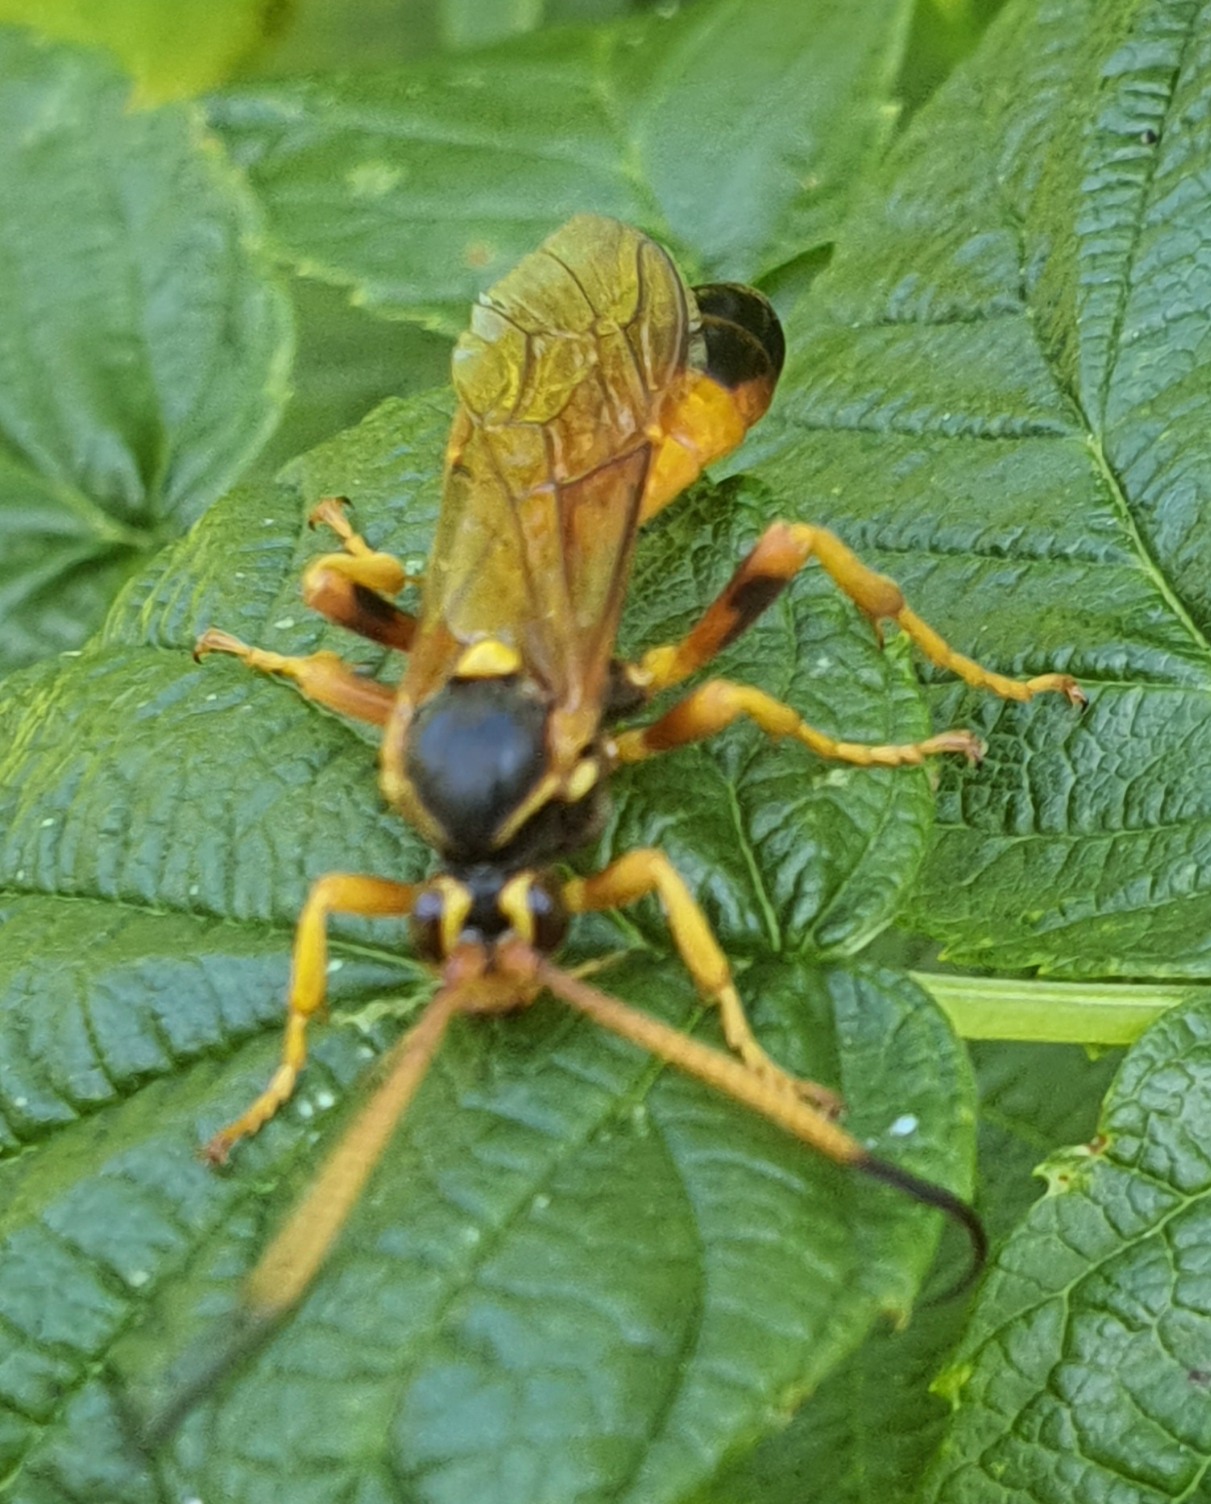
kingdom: Animalia
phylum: Arthropoda
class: Insecta
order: Hymenoptera
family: Ichneumonidae
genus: Callajoppa
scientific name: Callajoppa cirrogaster
